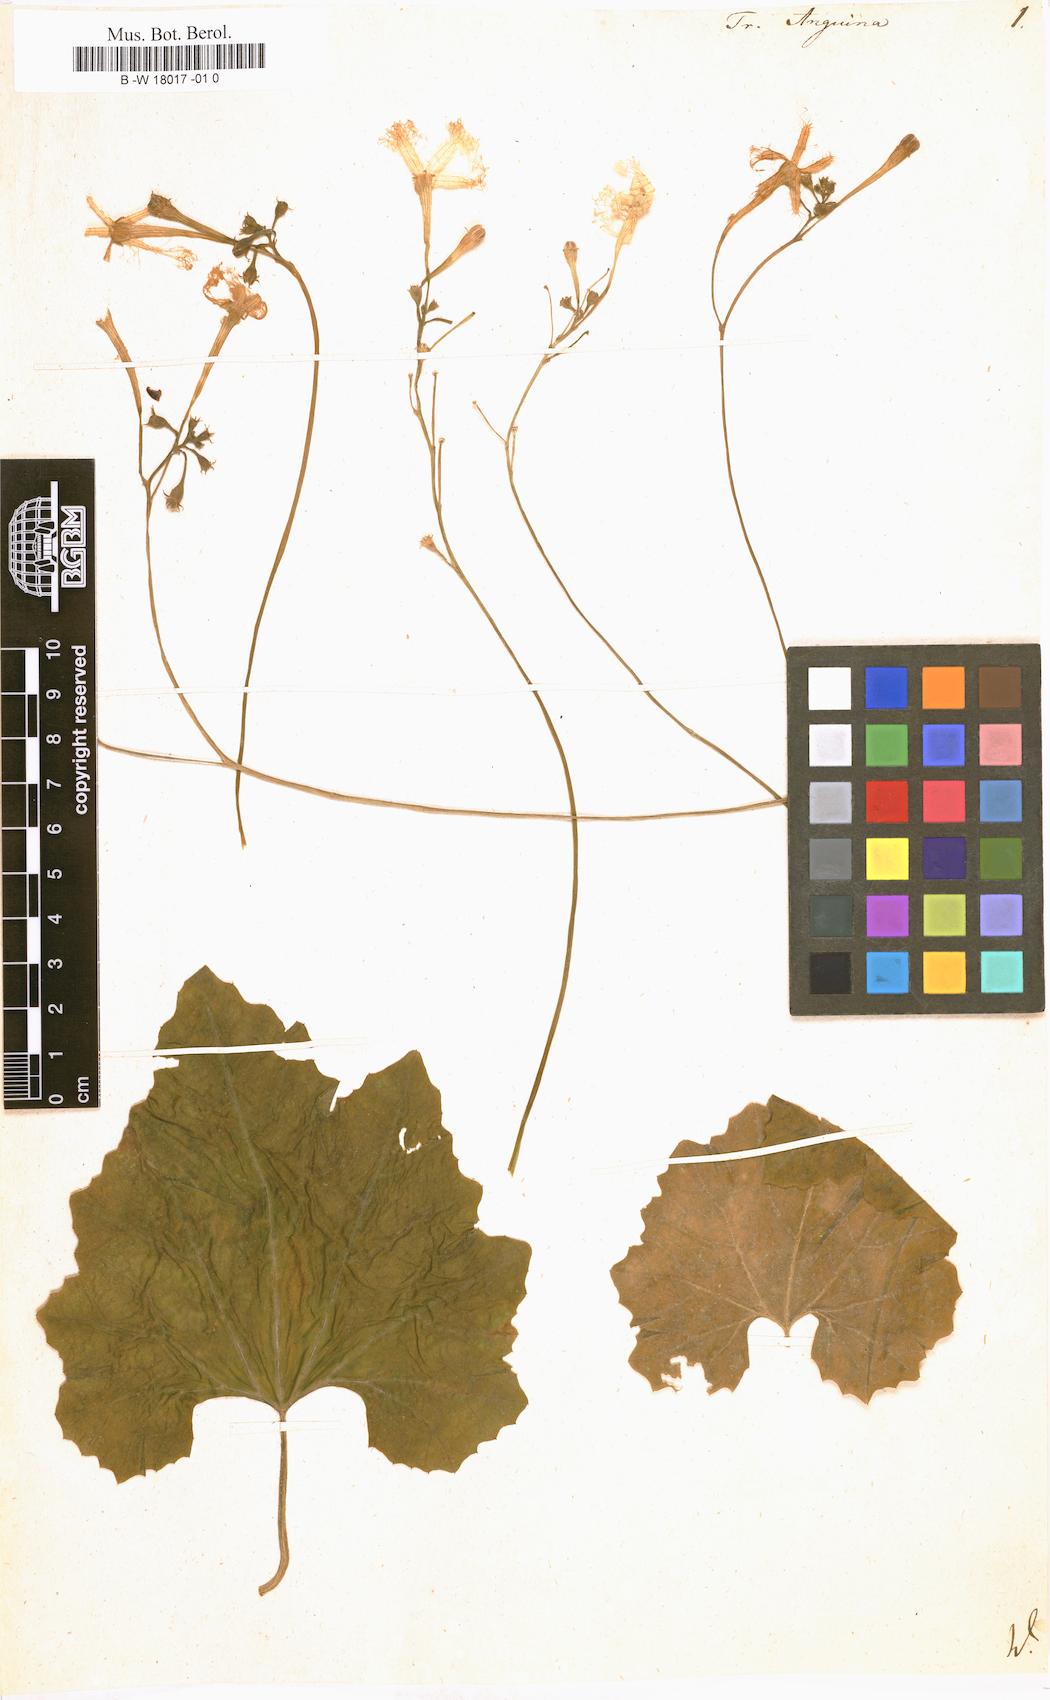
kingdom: Plantae
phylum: Tracheophyta
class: Magnoliopsida
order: Cucurbitales
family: Cucurbitaceae
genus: Trichosanthes
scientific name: Trichosanthes cucumerina
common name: Snakegourd
